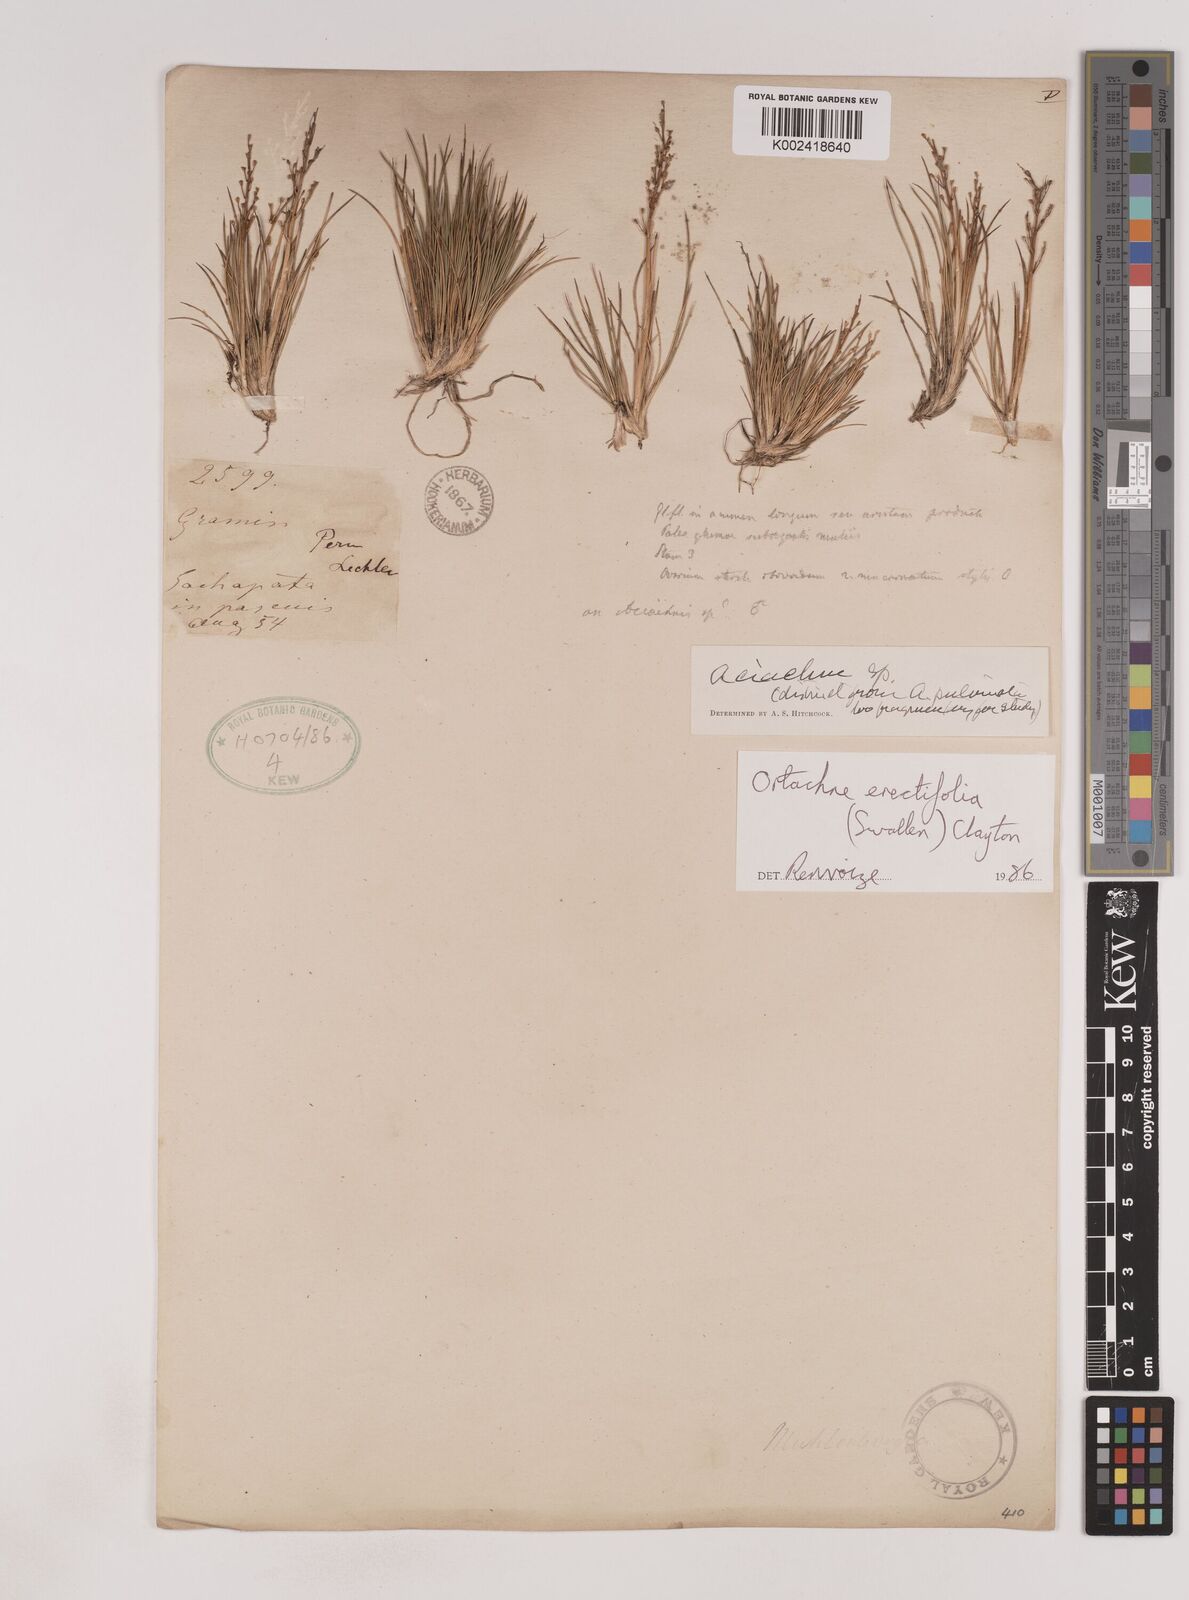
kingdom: Plantae
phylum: Tracheophyta
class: Liliopsida
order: Poales
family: Poaceae
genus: Lorenzochloa
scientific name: Lorenzochloa erectifolia
